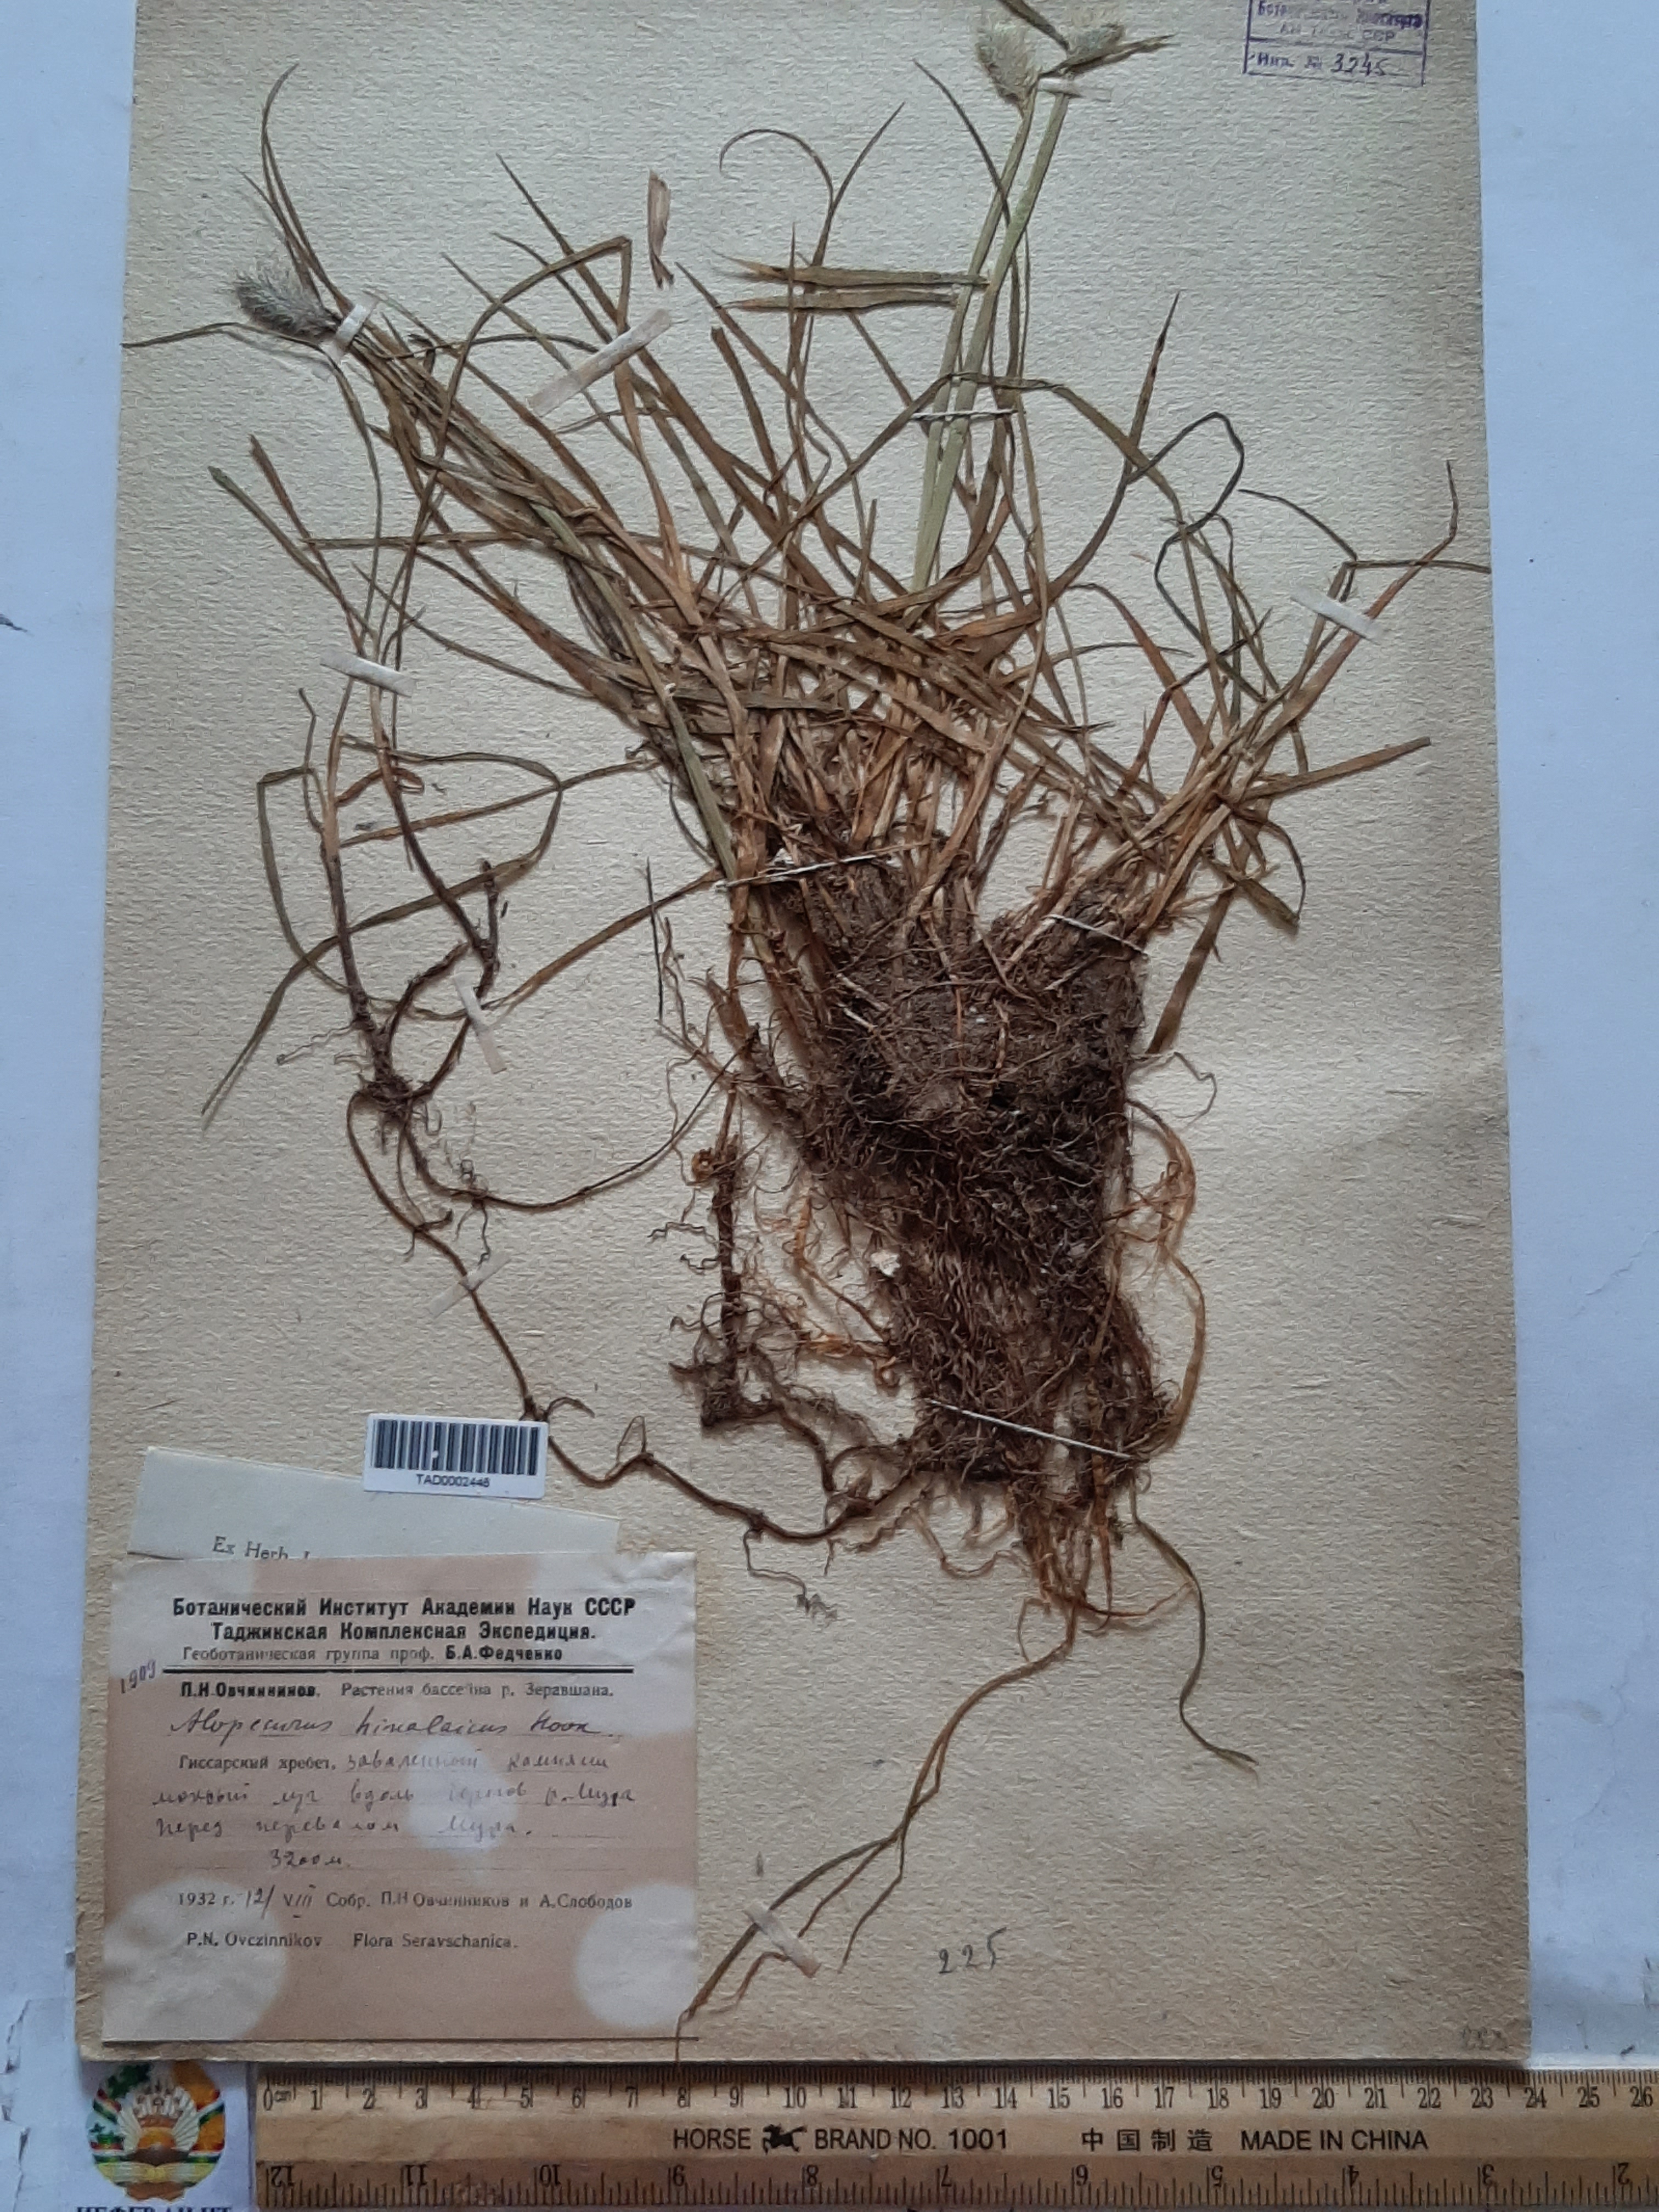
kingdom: Plantae
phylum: Tracheophyta
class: Liliopsida
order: Poales
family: Poaceae
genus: Alopecurus
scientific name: Alopecurus himalaicus
